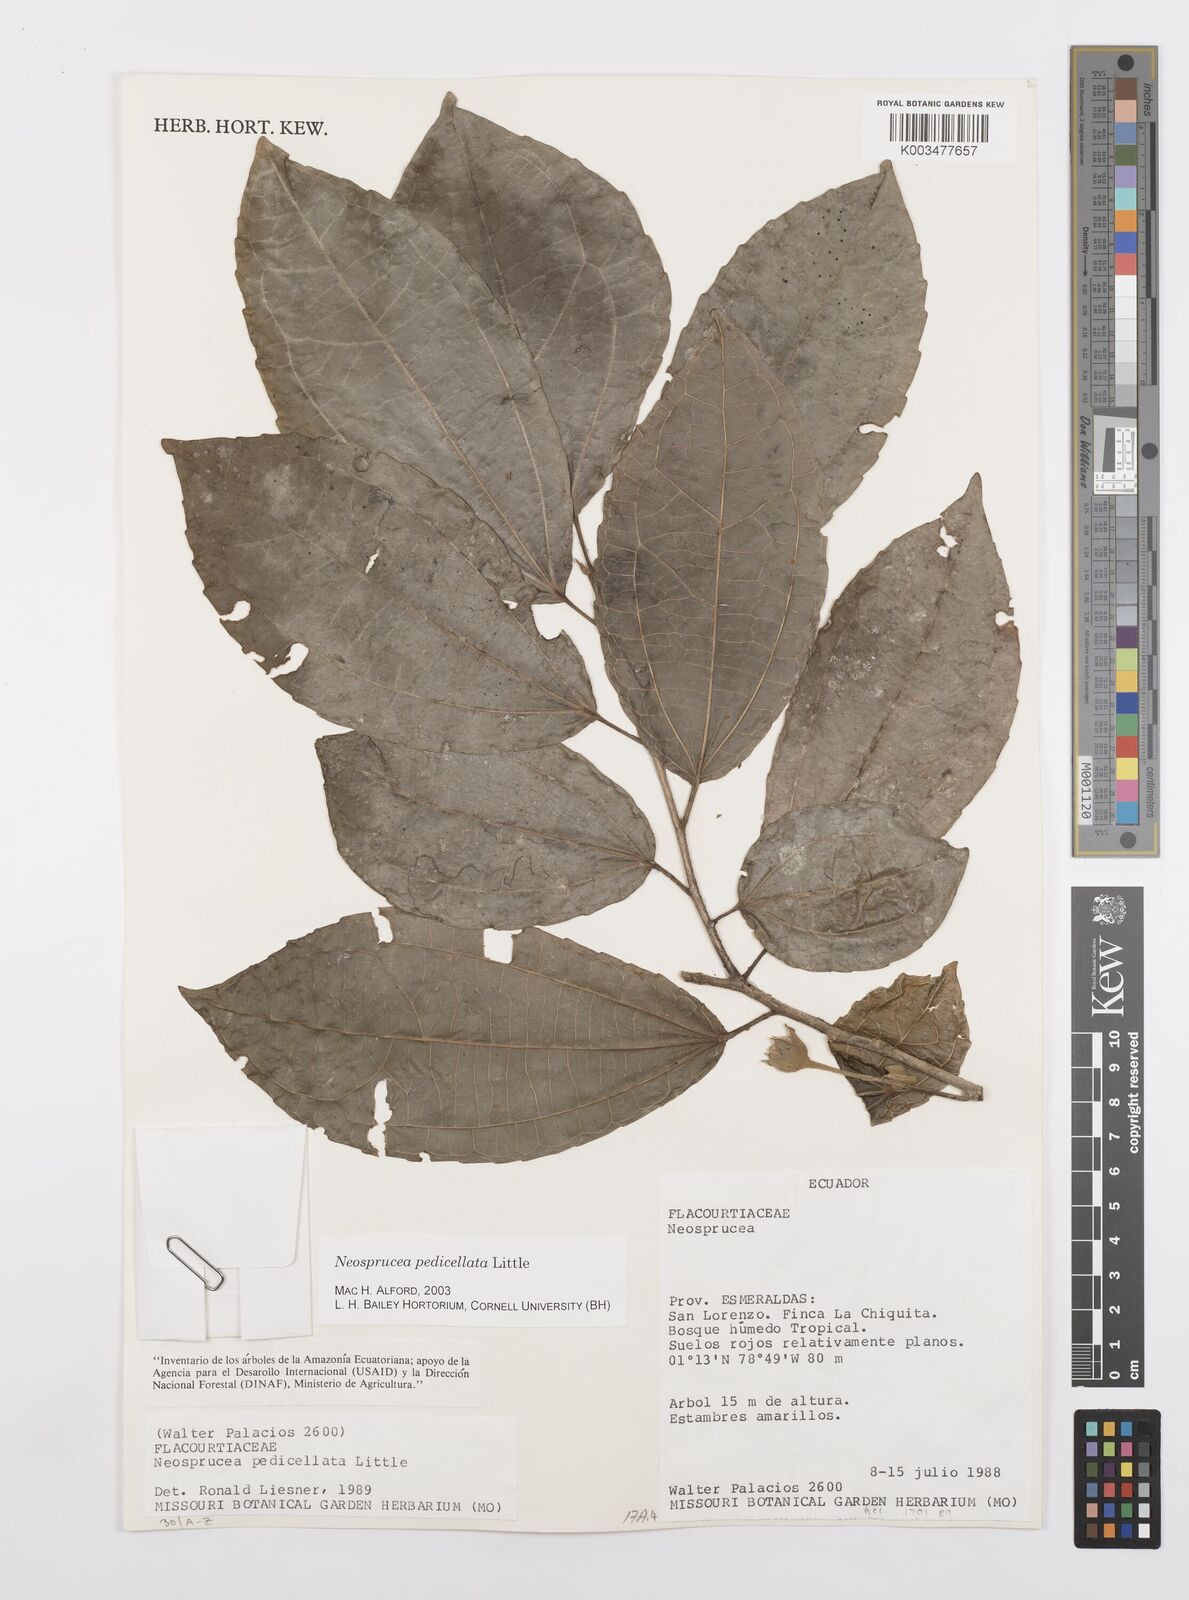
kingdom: Plantae
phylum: Tracheophyta
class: Magnoliopsida
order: Malpighiales
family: Salicaceae
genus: Neosprucea
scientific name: Neosprucea pedicellata
